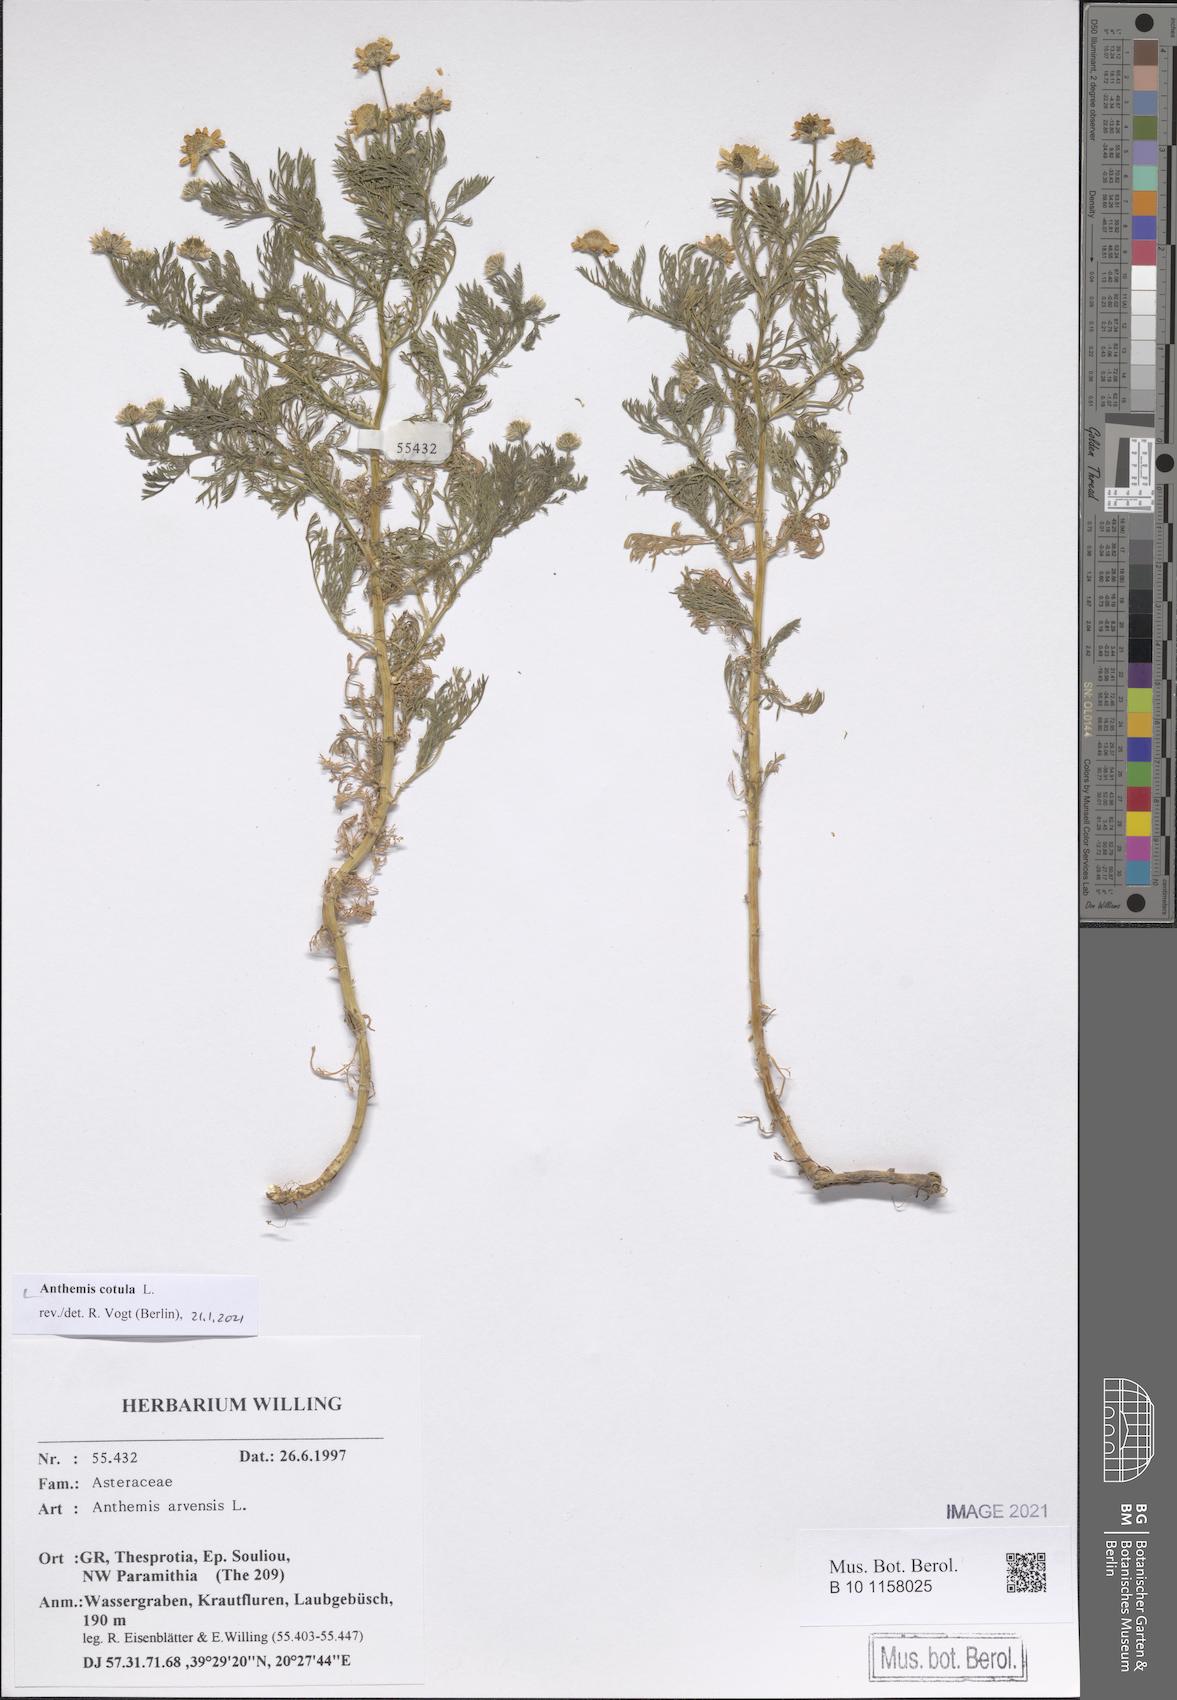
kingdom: Plantae
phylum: Tracheophyta
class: Magnoliopsida
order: Asterales
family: Asteraceae
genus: Anthemis
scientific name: Anthemis cotula
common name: Stinking chamomile
